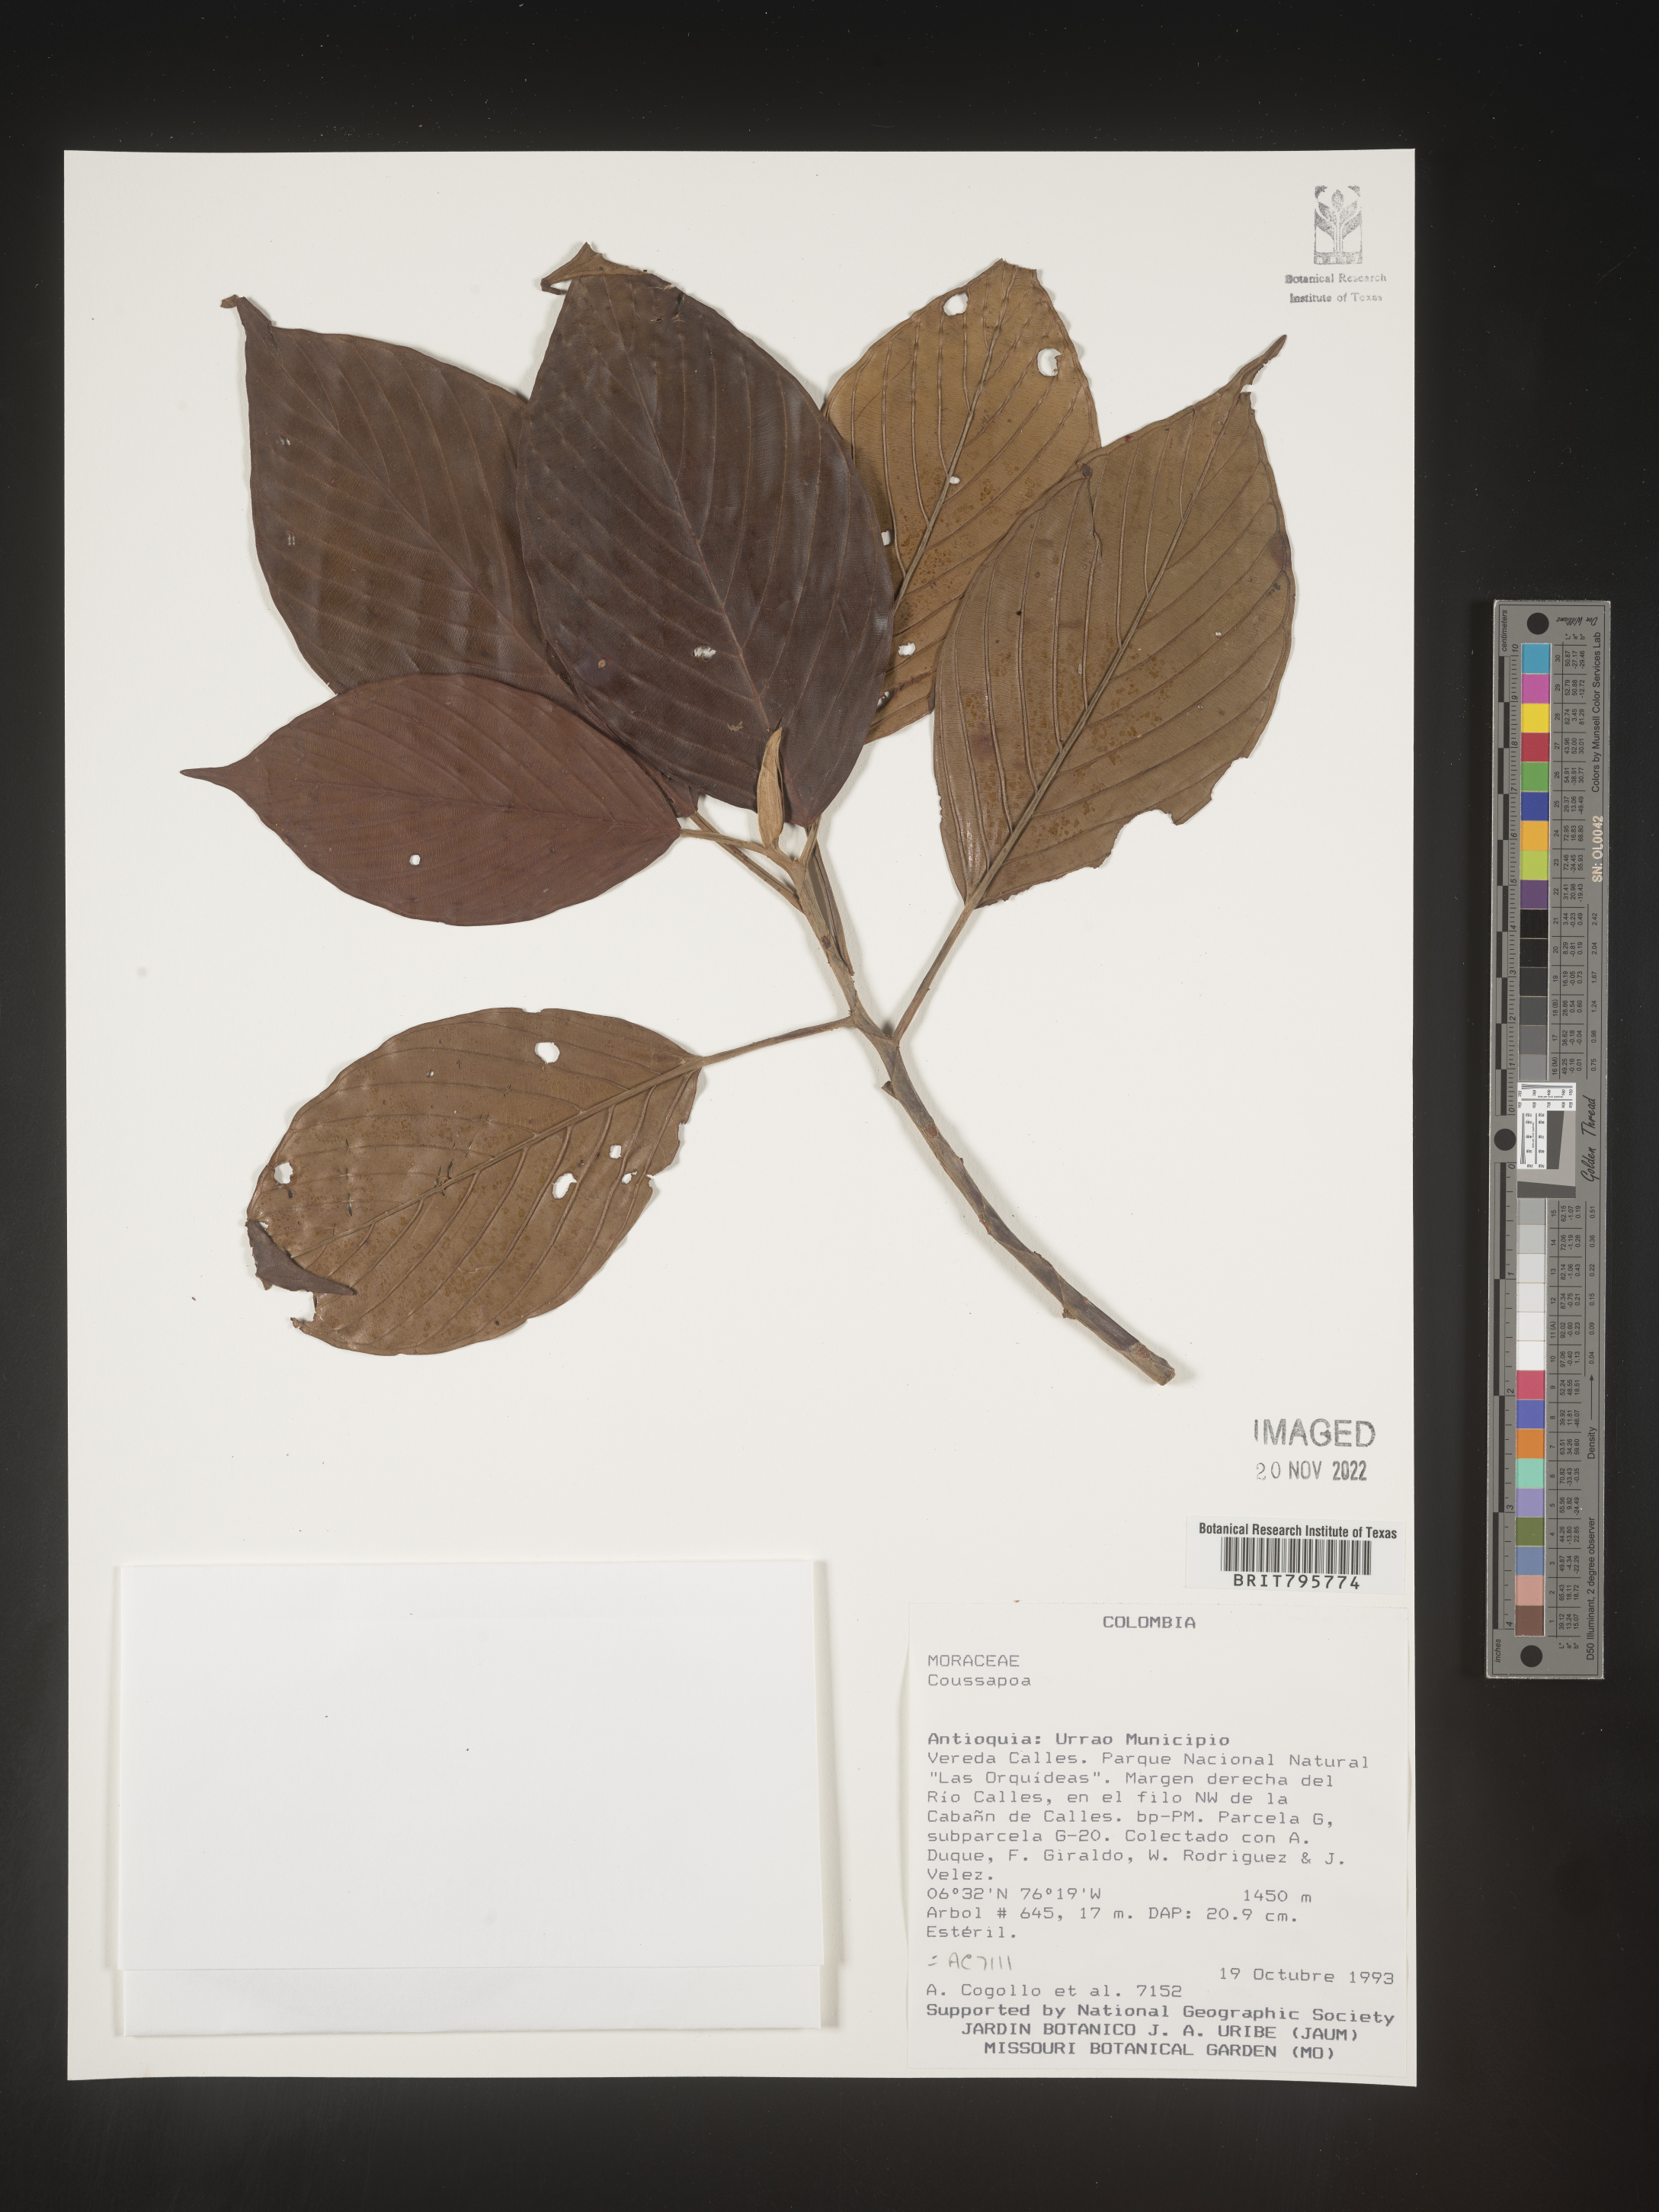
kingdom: Plantae
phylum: Tracheophyta
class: Magnoliopsida
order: Rosales
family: Urticaceae
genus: Coussapoa
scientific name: Coussapoa
